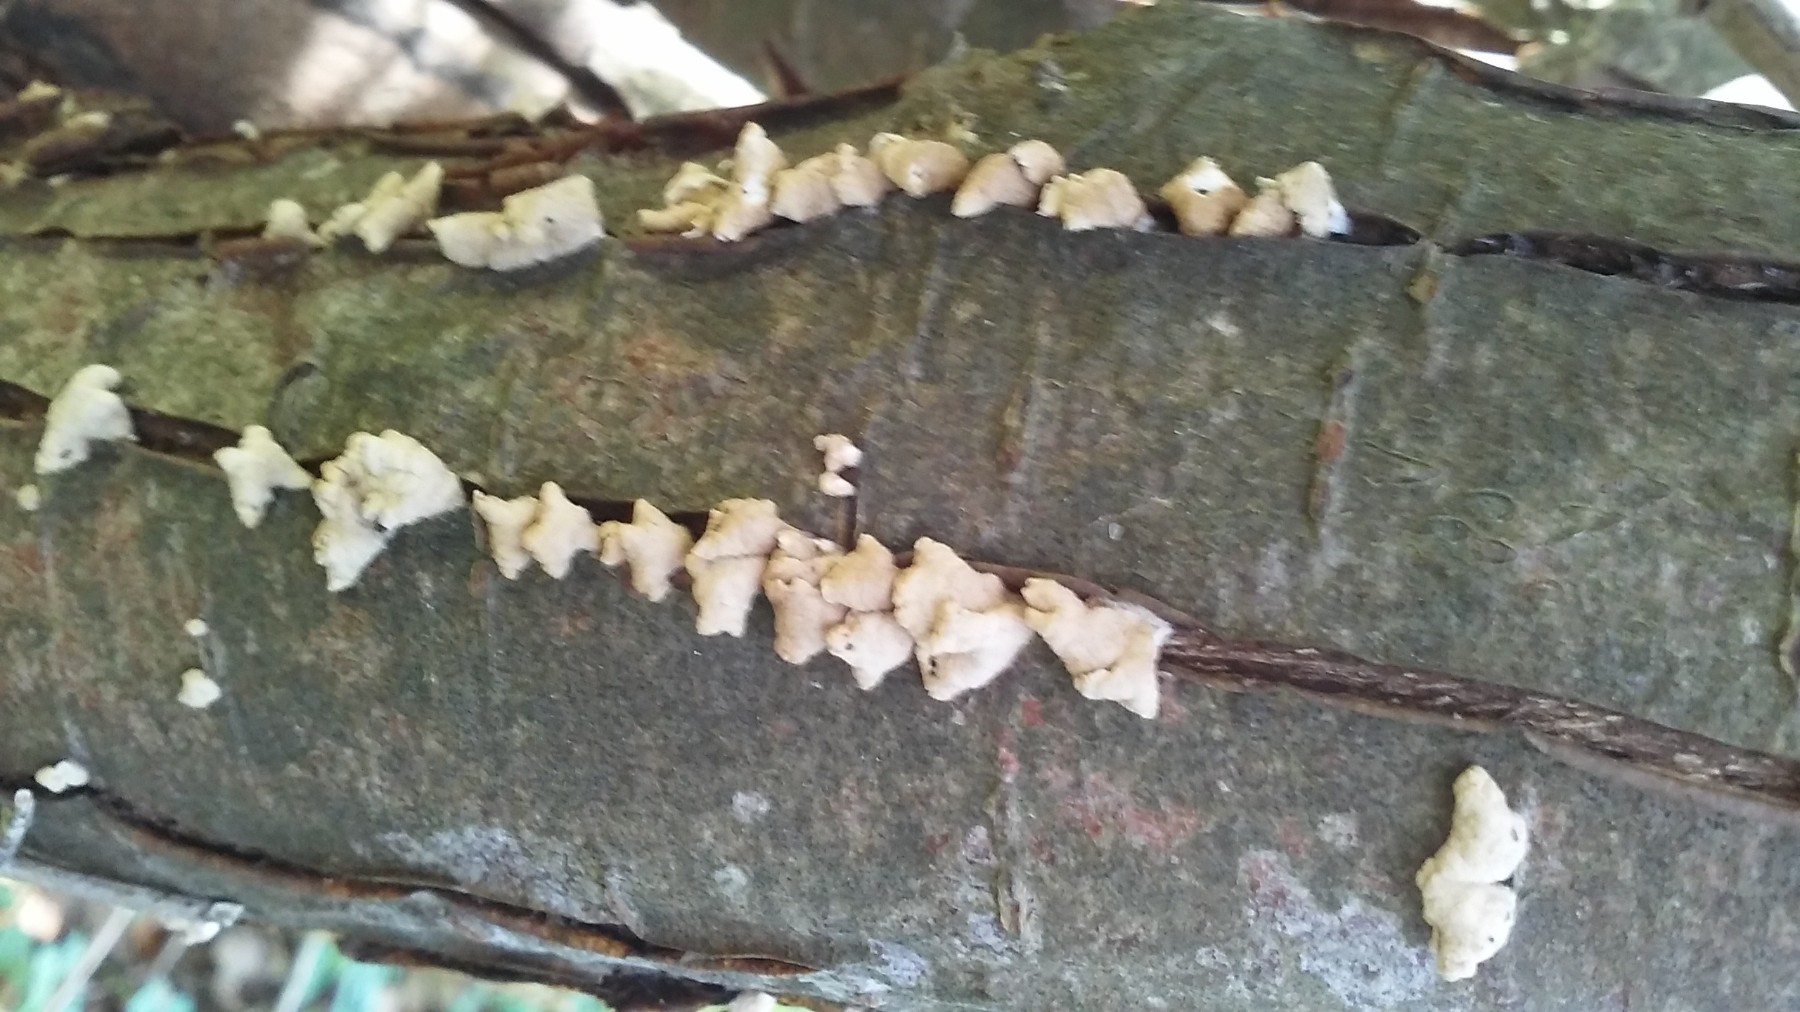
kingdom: Fungi
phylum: Basidiomycota
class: Agaricomycetes
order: Amylocorticiales
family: Amylocorticiaceae
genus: Plicaturopsis
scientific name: Plicaturopsis crispa
